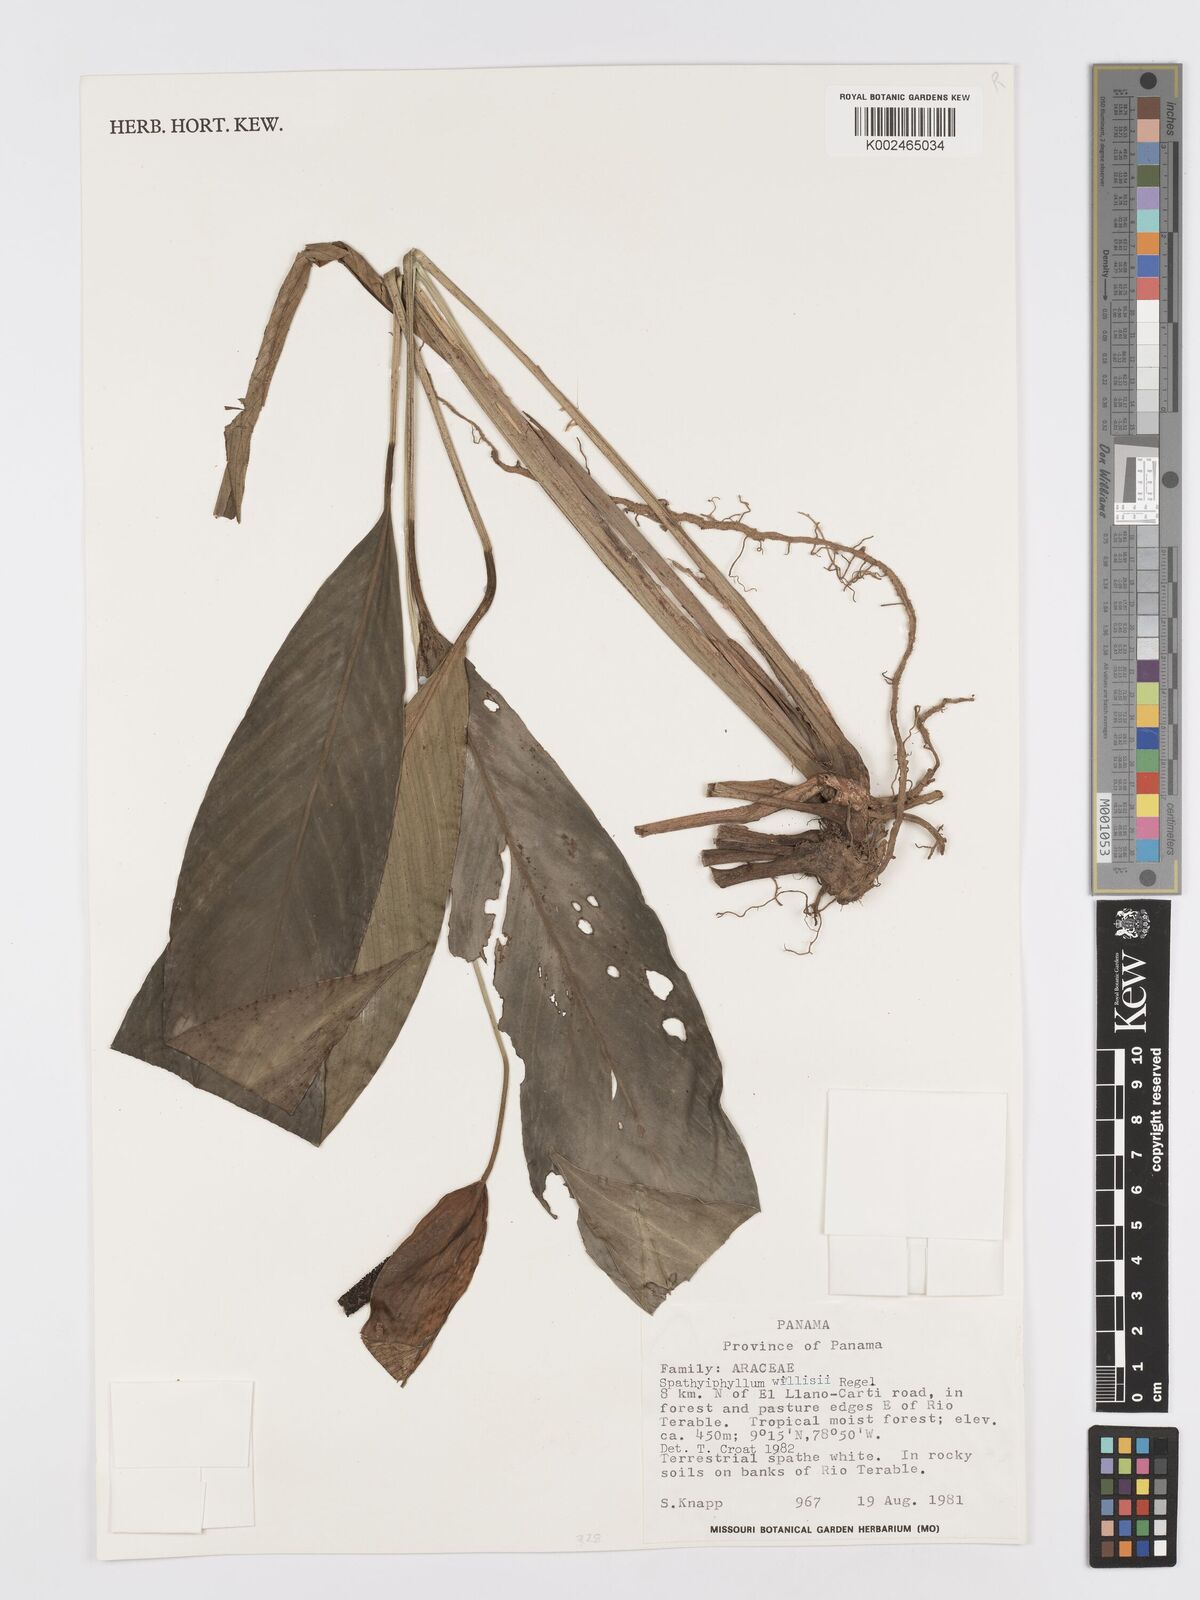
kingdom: Plantae
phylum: Tracheophyta
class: Liliopsida
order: Alismatales
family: Araceae
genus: Spathiphyllum
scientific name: Spathiphyllum wallisii
